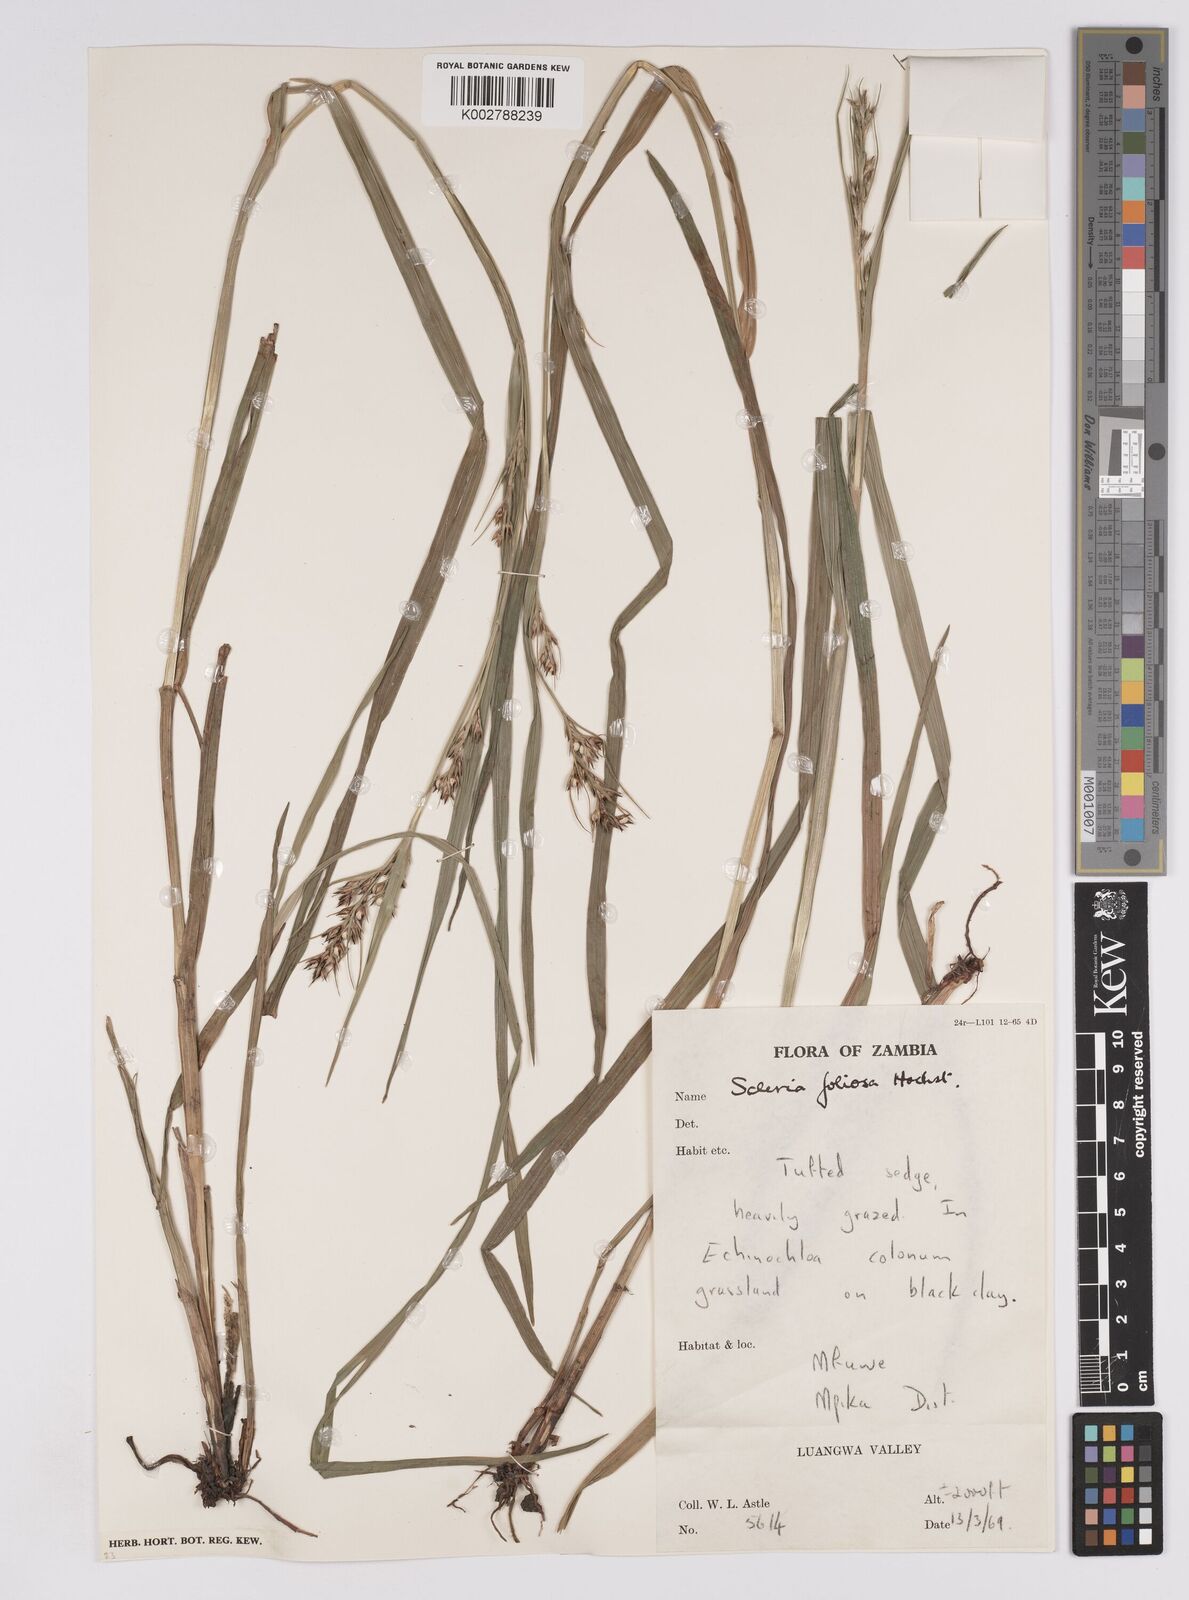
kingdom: Plantae
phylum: Tracheophyta
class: Liliopsida
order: Poales
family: Cyperaceae
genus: Scleria
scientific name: Scleria foliosa
